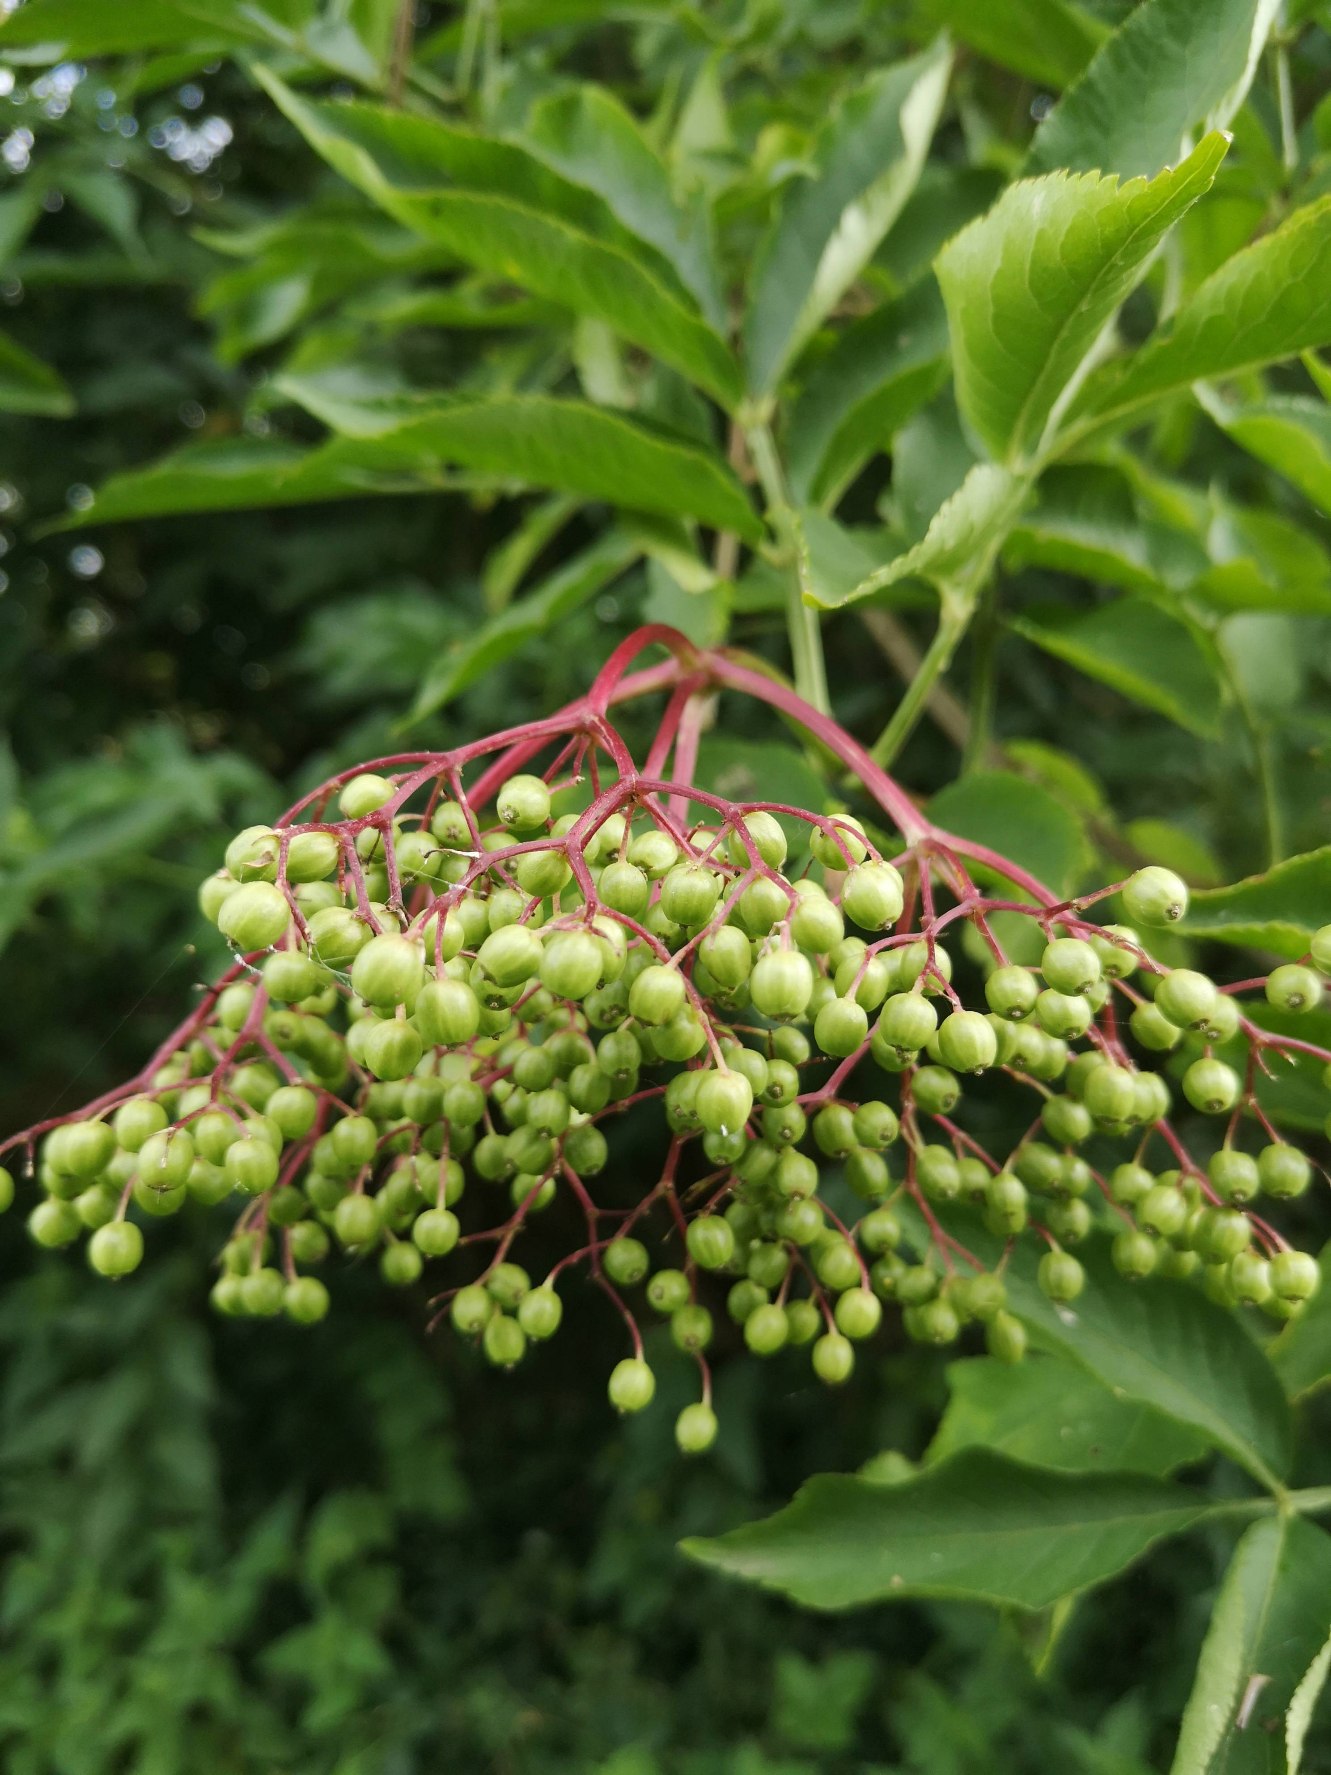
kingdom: Plantae
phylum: Tracheophyta
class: Magnoliopsida
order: Dipsacales
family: Viburnaceae
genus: Sambucus
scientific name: Sambucus nigra
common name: Almindelig hyld
